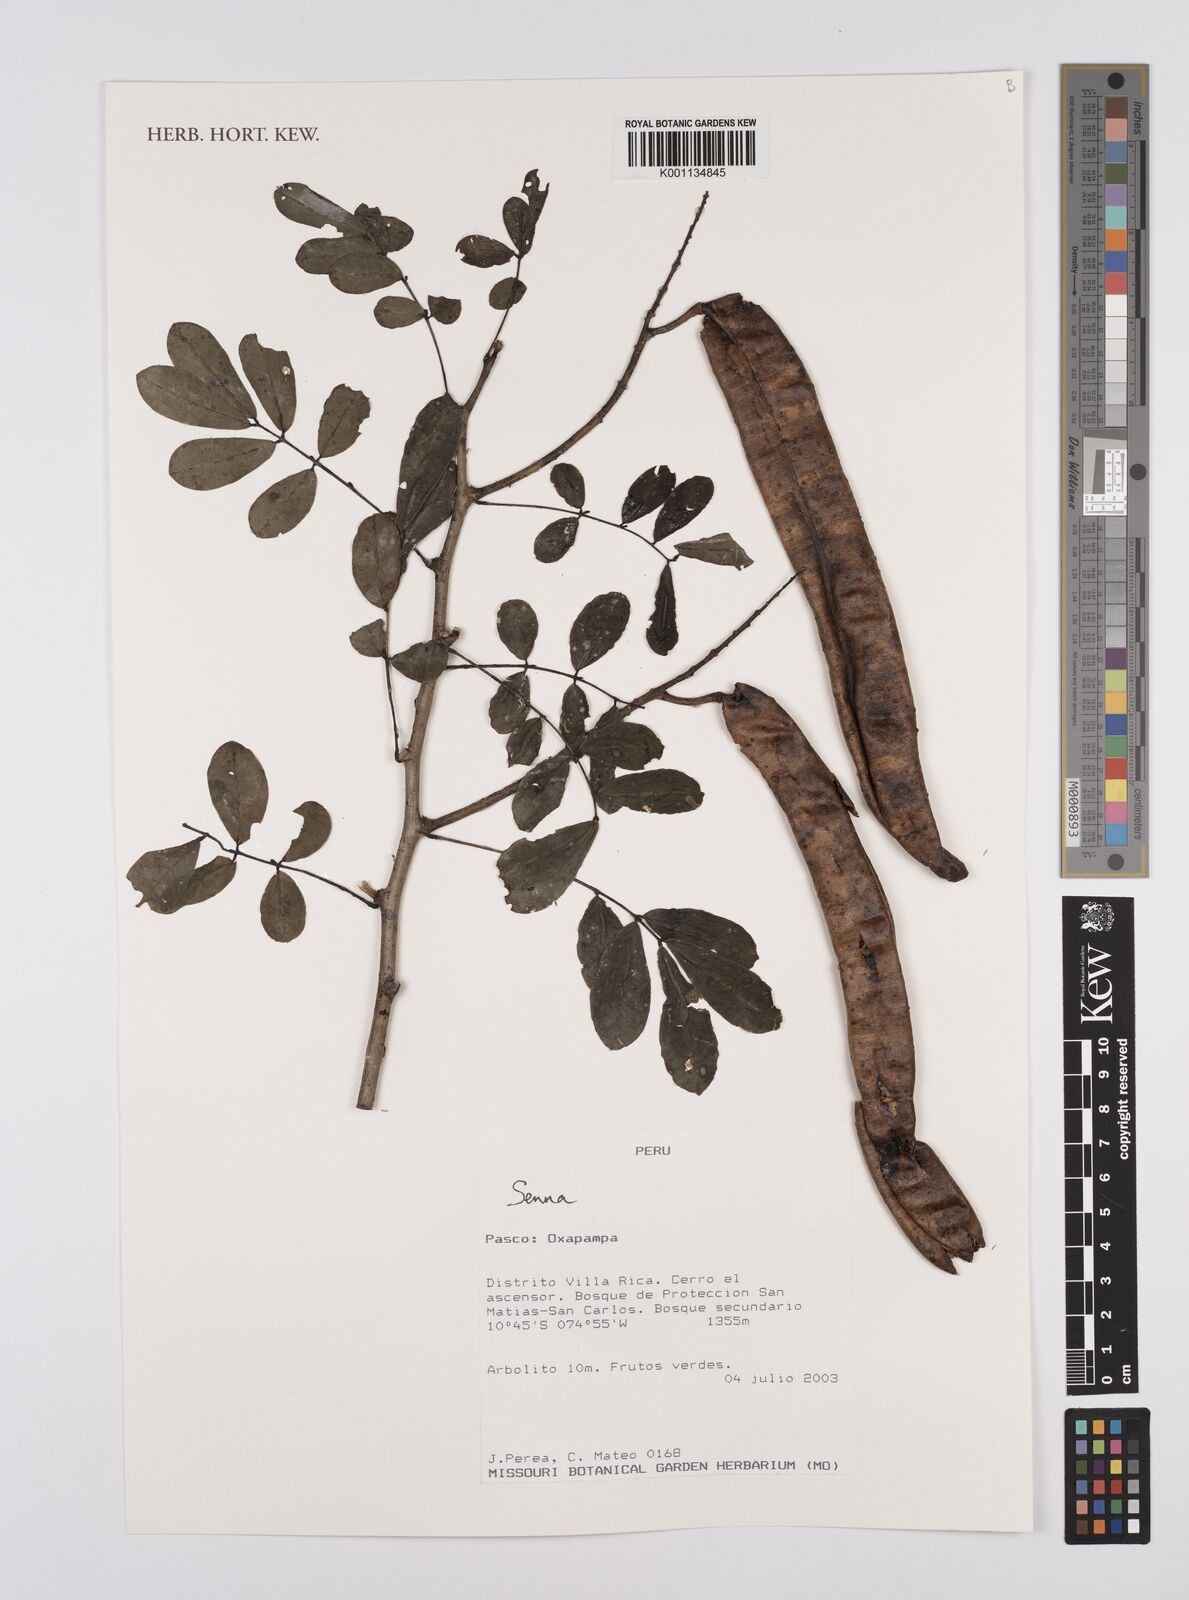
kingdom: Plantae
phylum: Tracheophyta
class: Magnoliopsida
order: Fabales
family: Fabaceae
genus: Senna
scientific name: Senna
